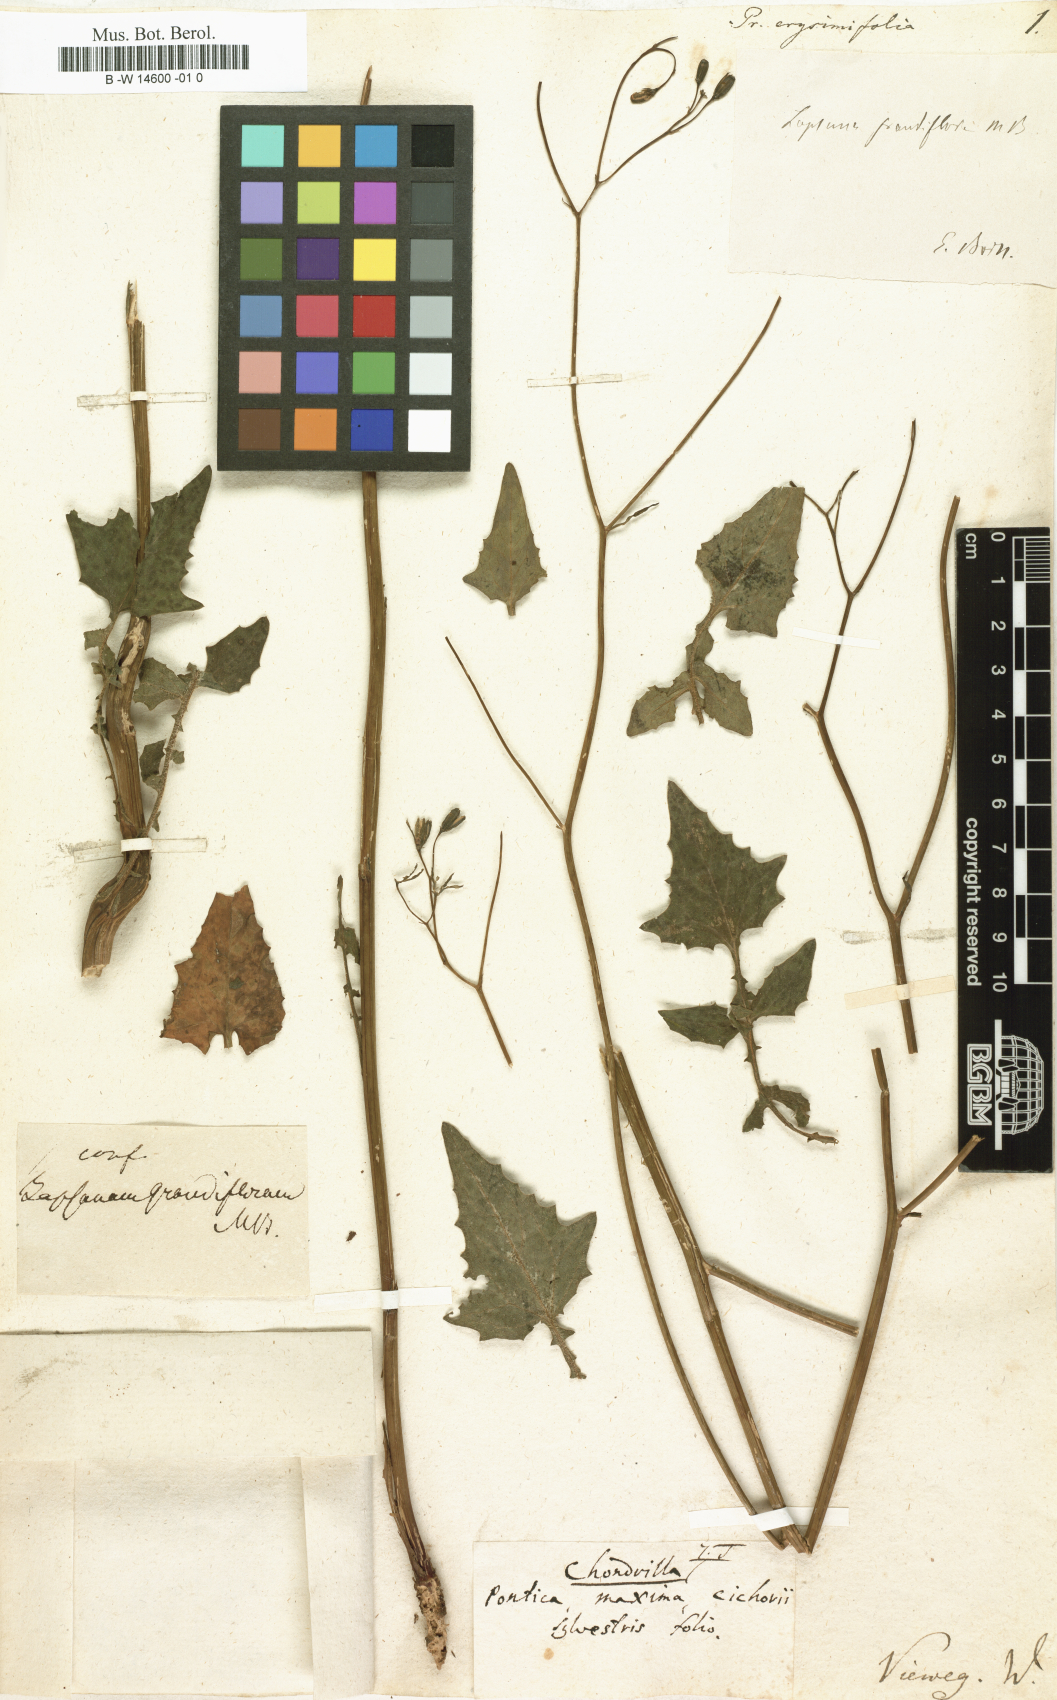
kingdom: Plantae
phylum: Tracheophyta
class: Magnoliopsida
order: Asterales
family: Asteraceae
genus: Mycelis
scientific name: Mycelis muralis
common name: Wall lettuce
